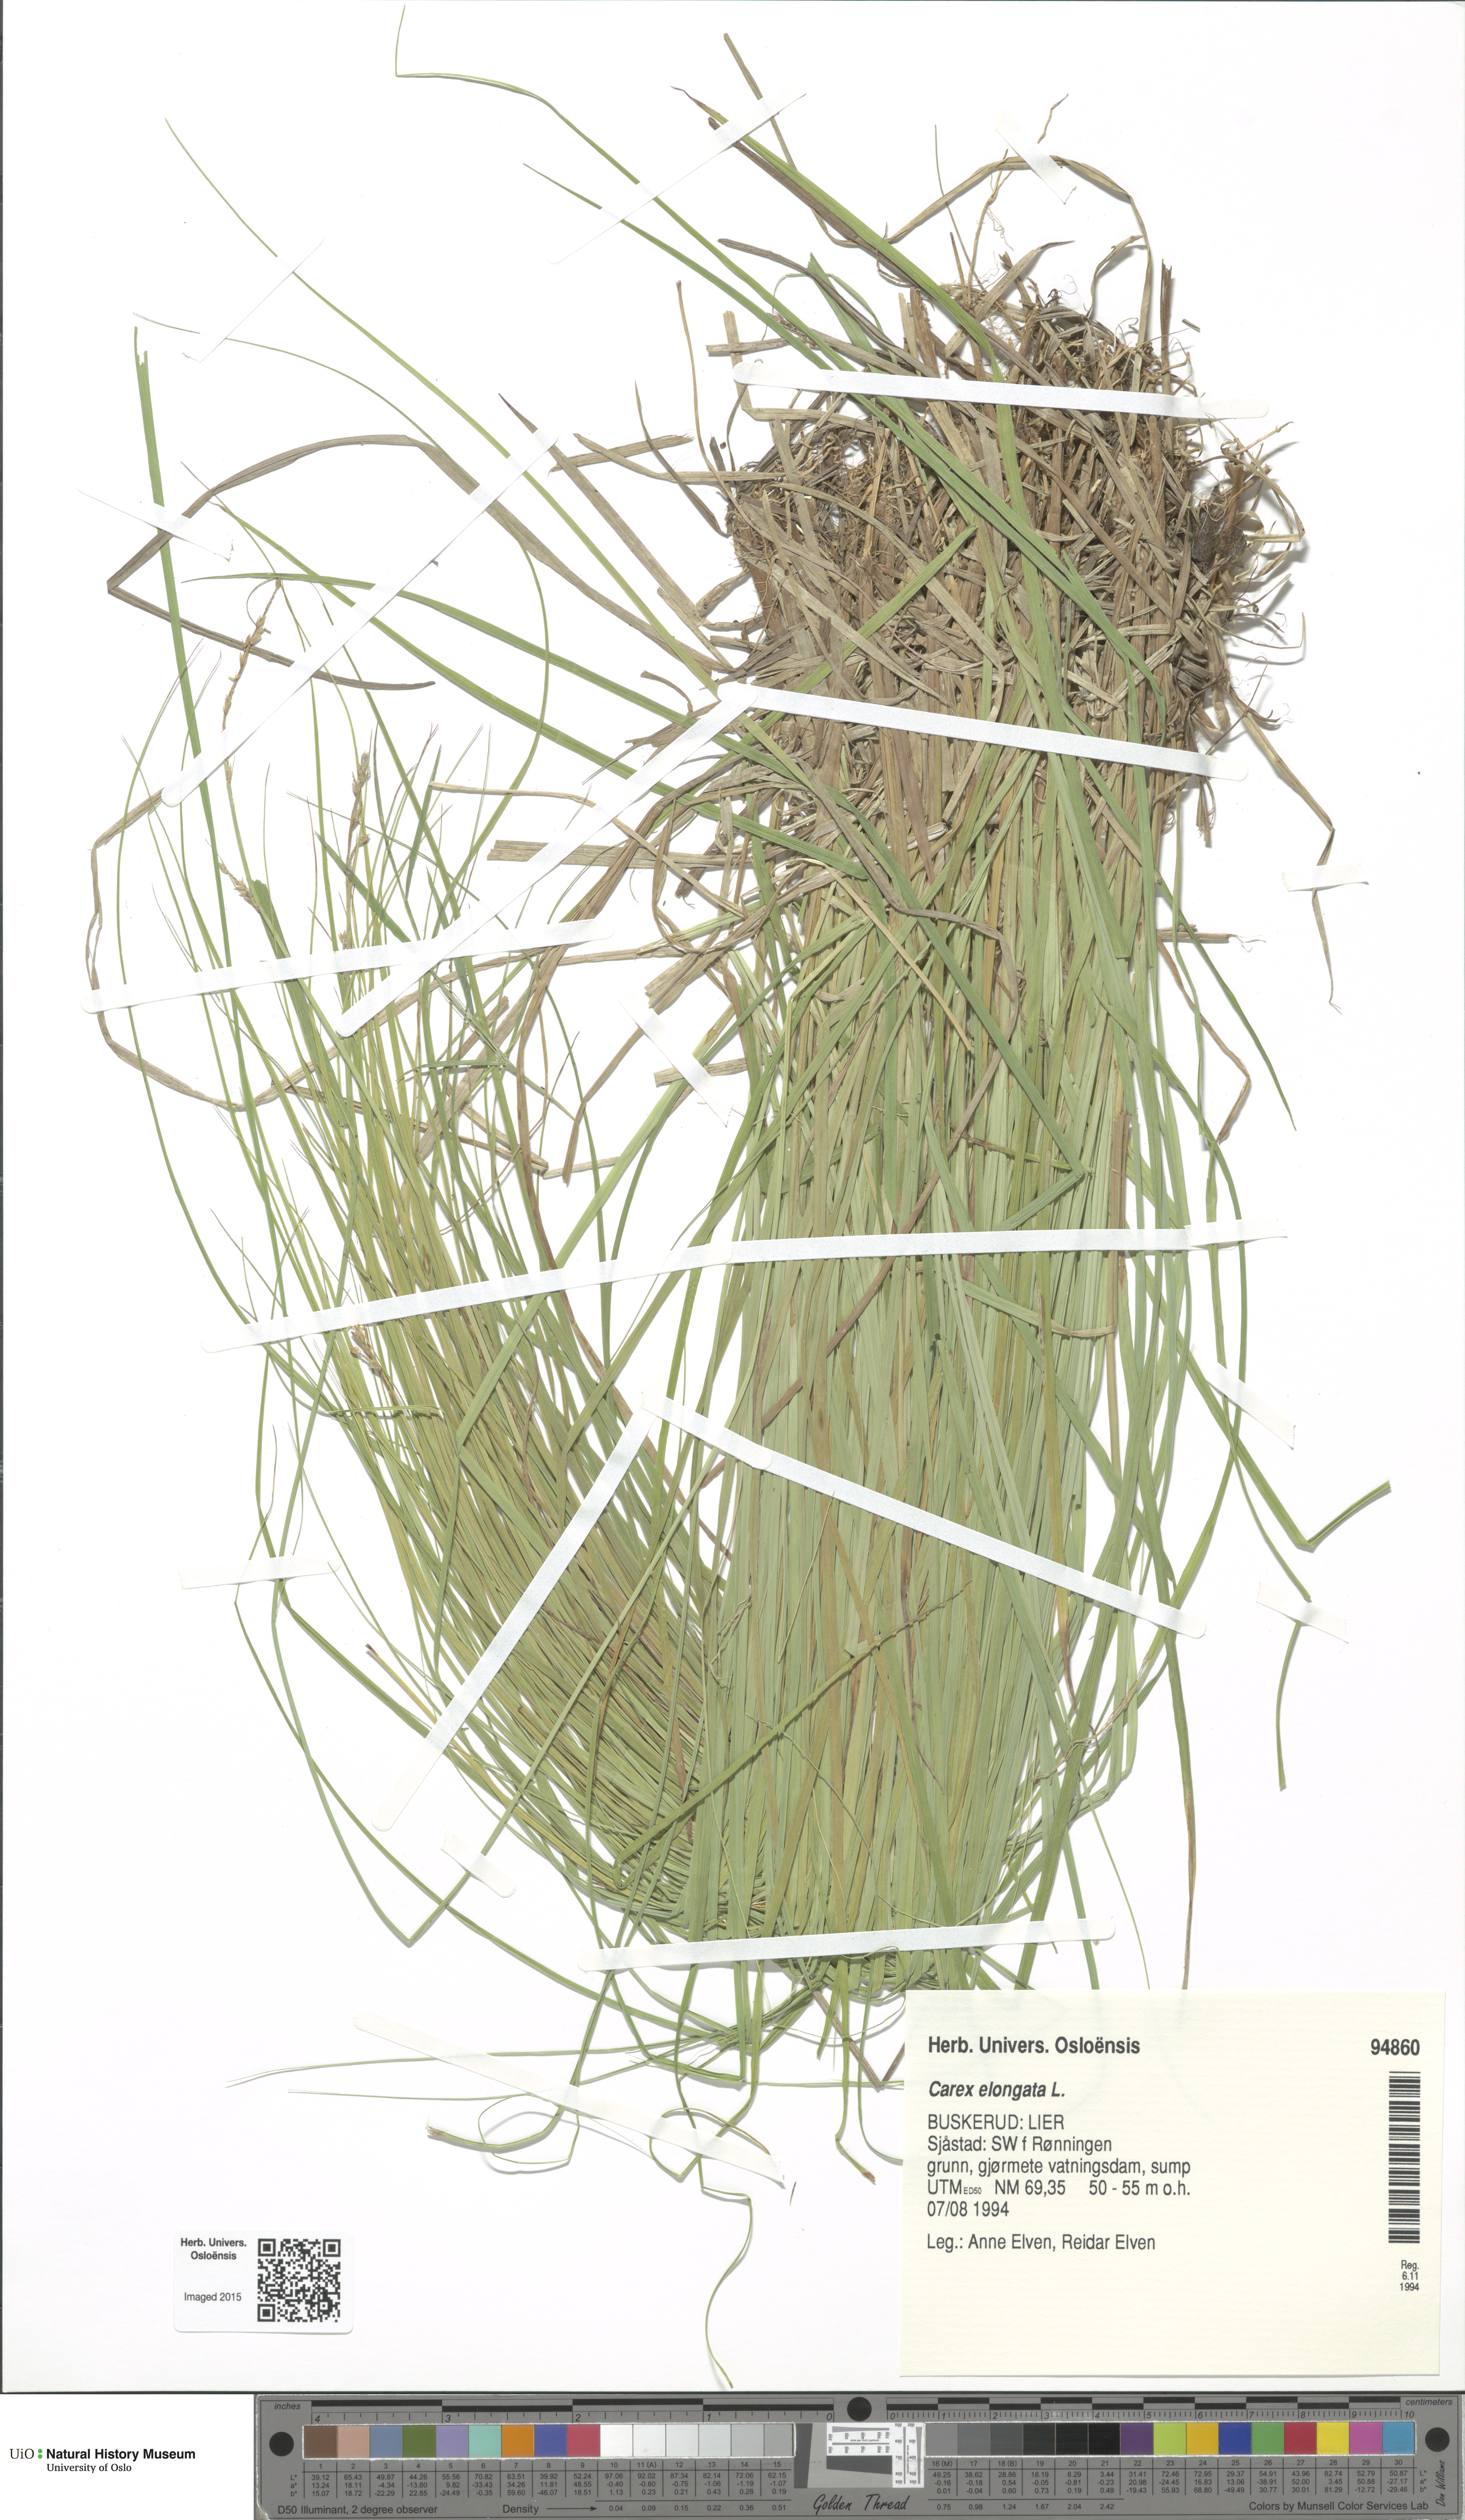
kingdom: Plantae
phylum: Tracheophyta
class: Liliopsida
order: Poales
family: Cyperaceae
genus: Carex
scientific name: Carex elongata
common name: Elongated sedge
